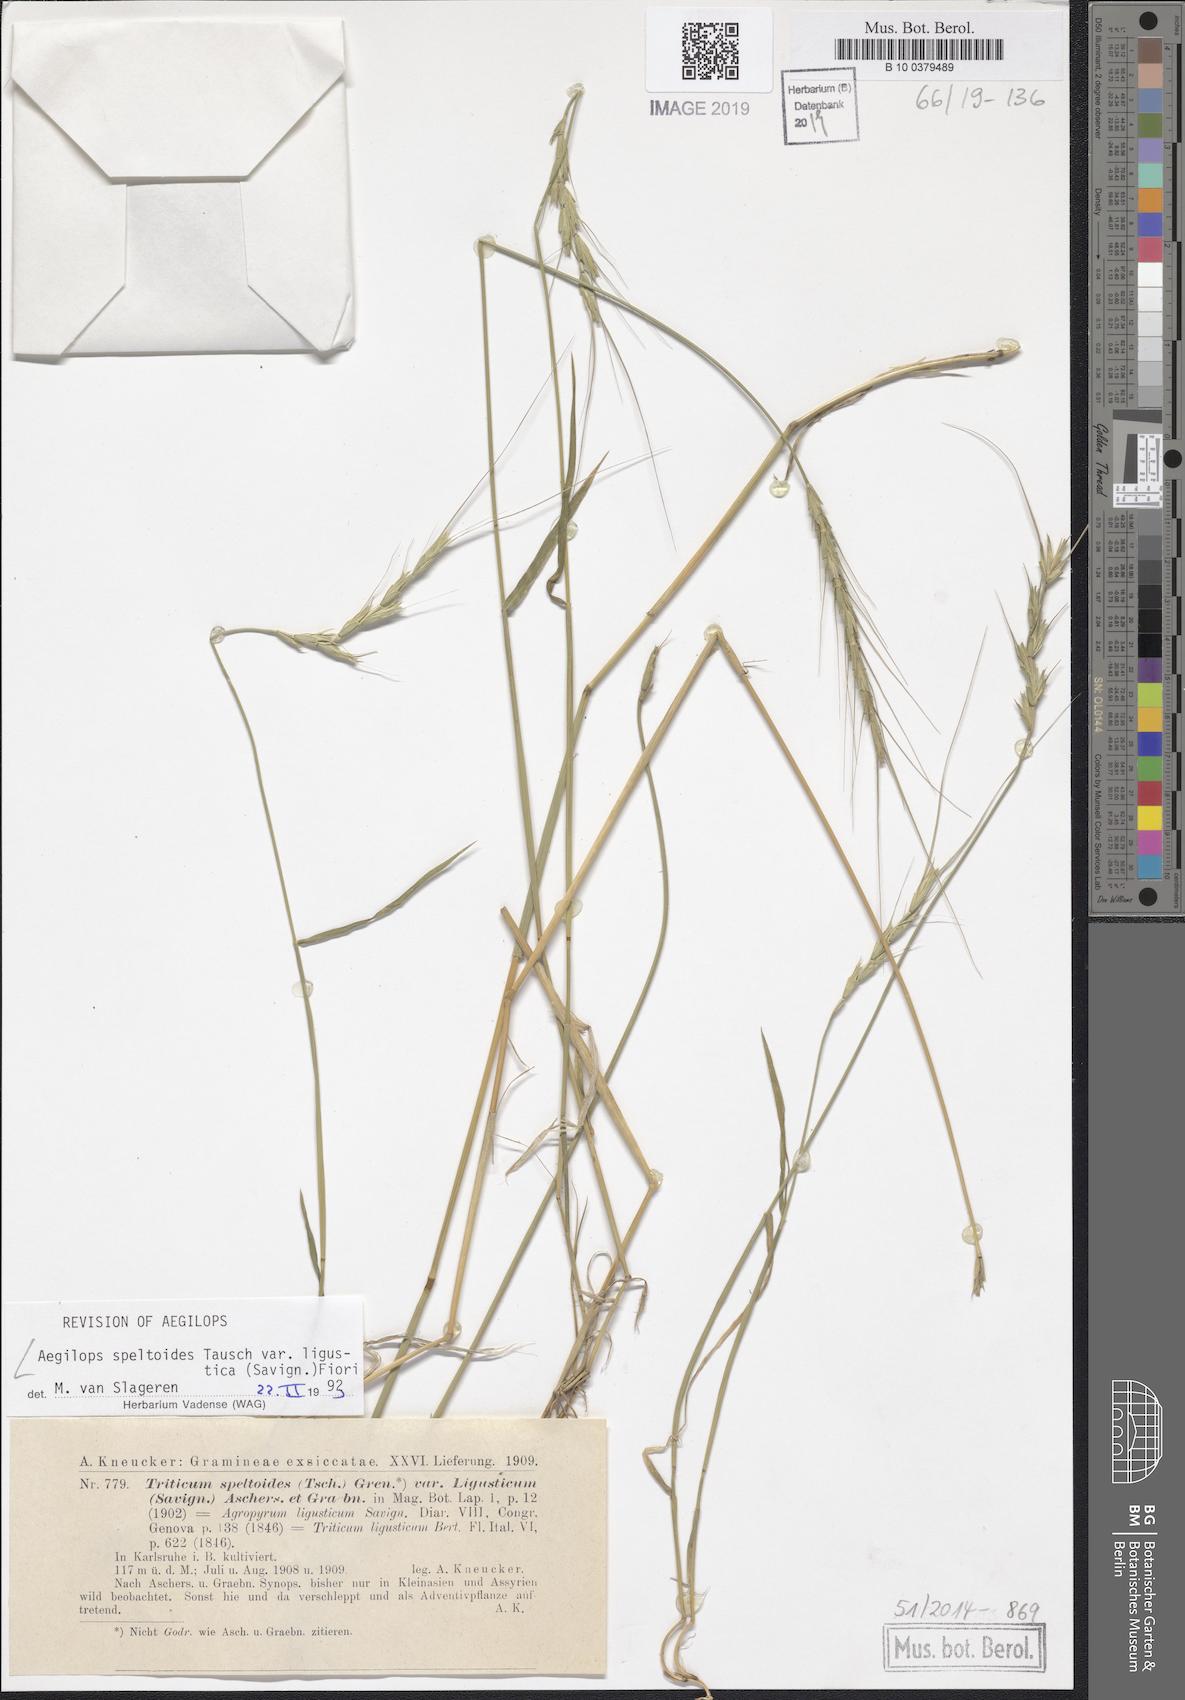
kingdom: Plantae
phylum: Tracheophyta
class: Liliopsida
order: Poales
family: Poaceae
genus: Aegilops
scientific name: Aegilops speltoides
